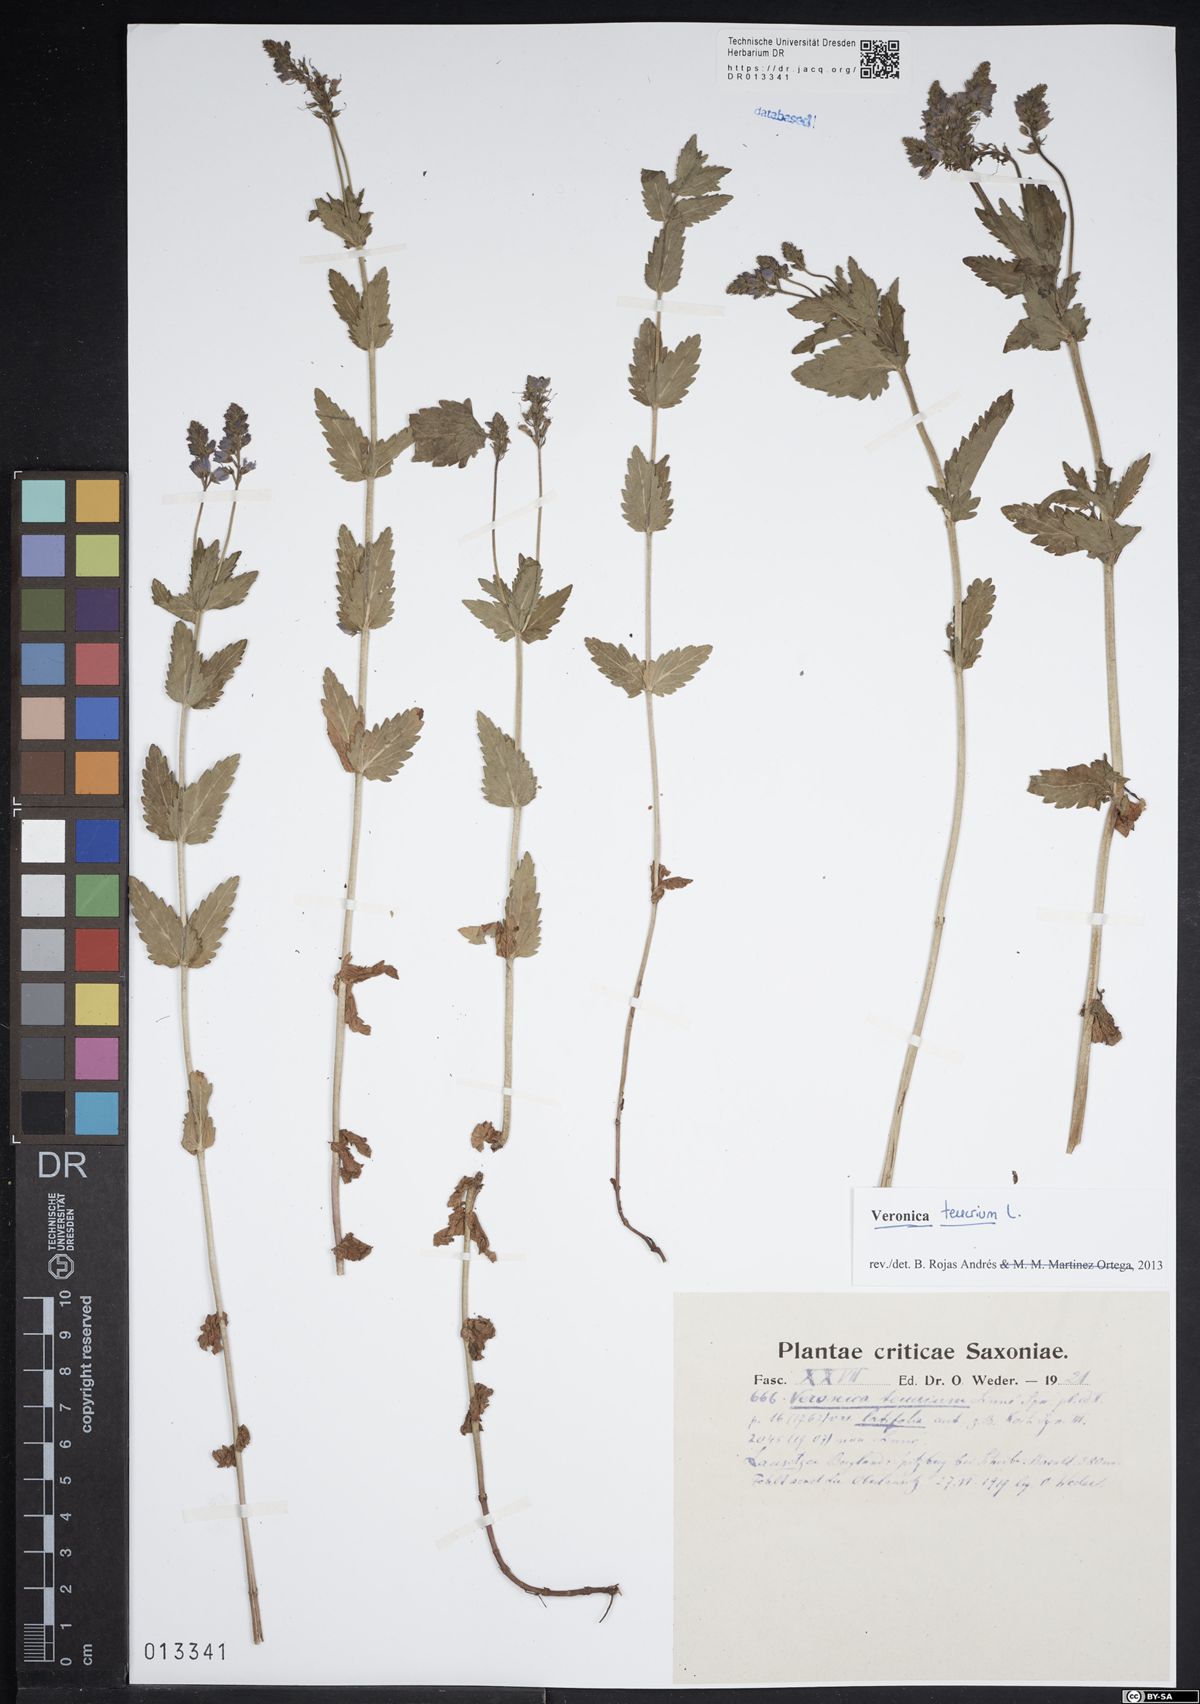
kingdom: Plantae
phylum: Tracheophyta
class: Magnoliopsida
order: Lamiales
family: Plantaginaceae
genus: Veronica
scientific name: Veronica teucrium
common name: Large speedwell
